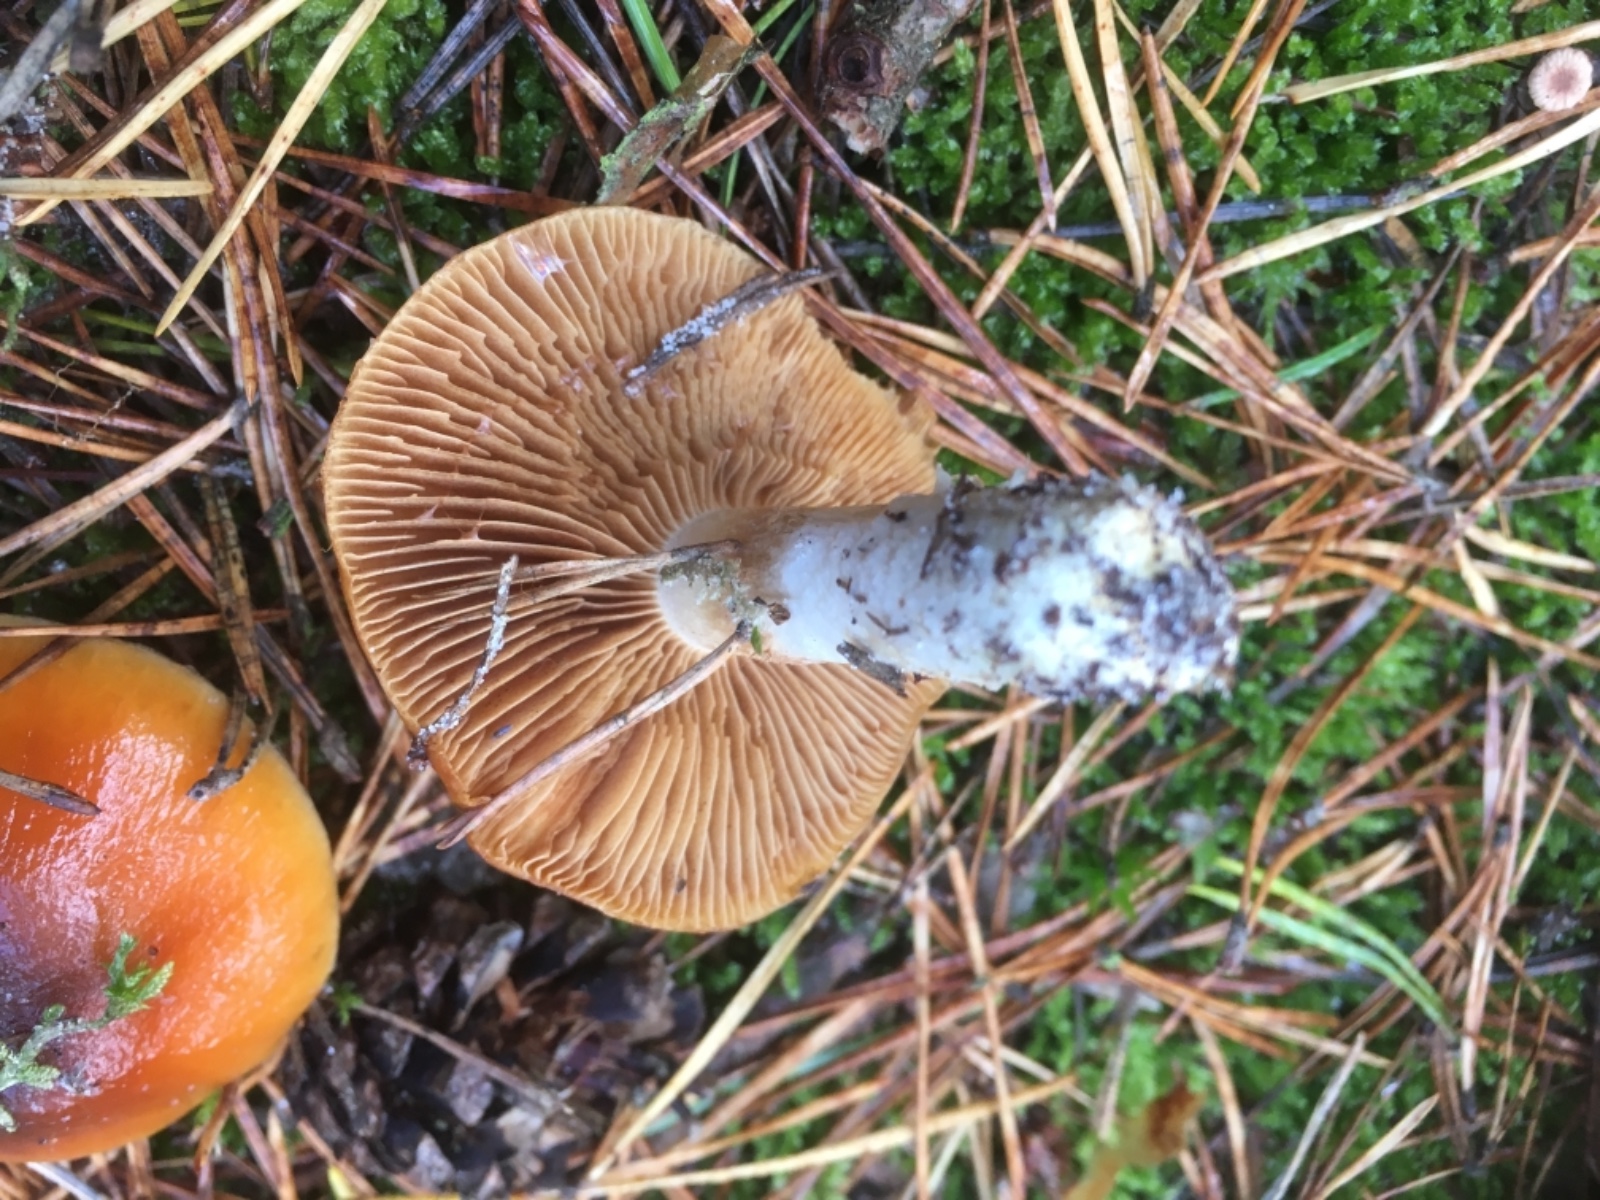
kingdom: Fungi
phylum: Basidiomycota
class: Agaricomycetes
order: Agaricales
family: Cortinariaceae
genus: Cortinarius
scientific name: Cortinarius mucosus
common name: kastaniebrun slørhat
